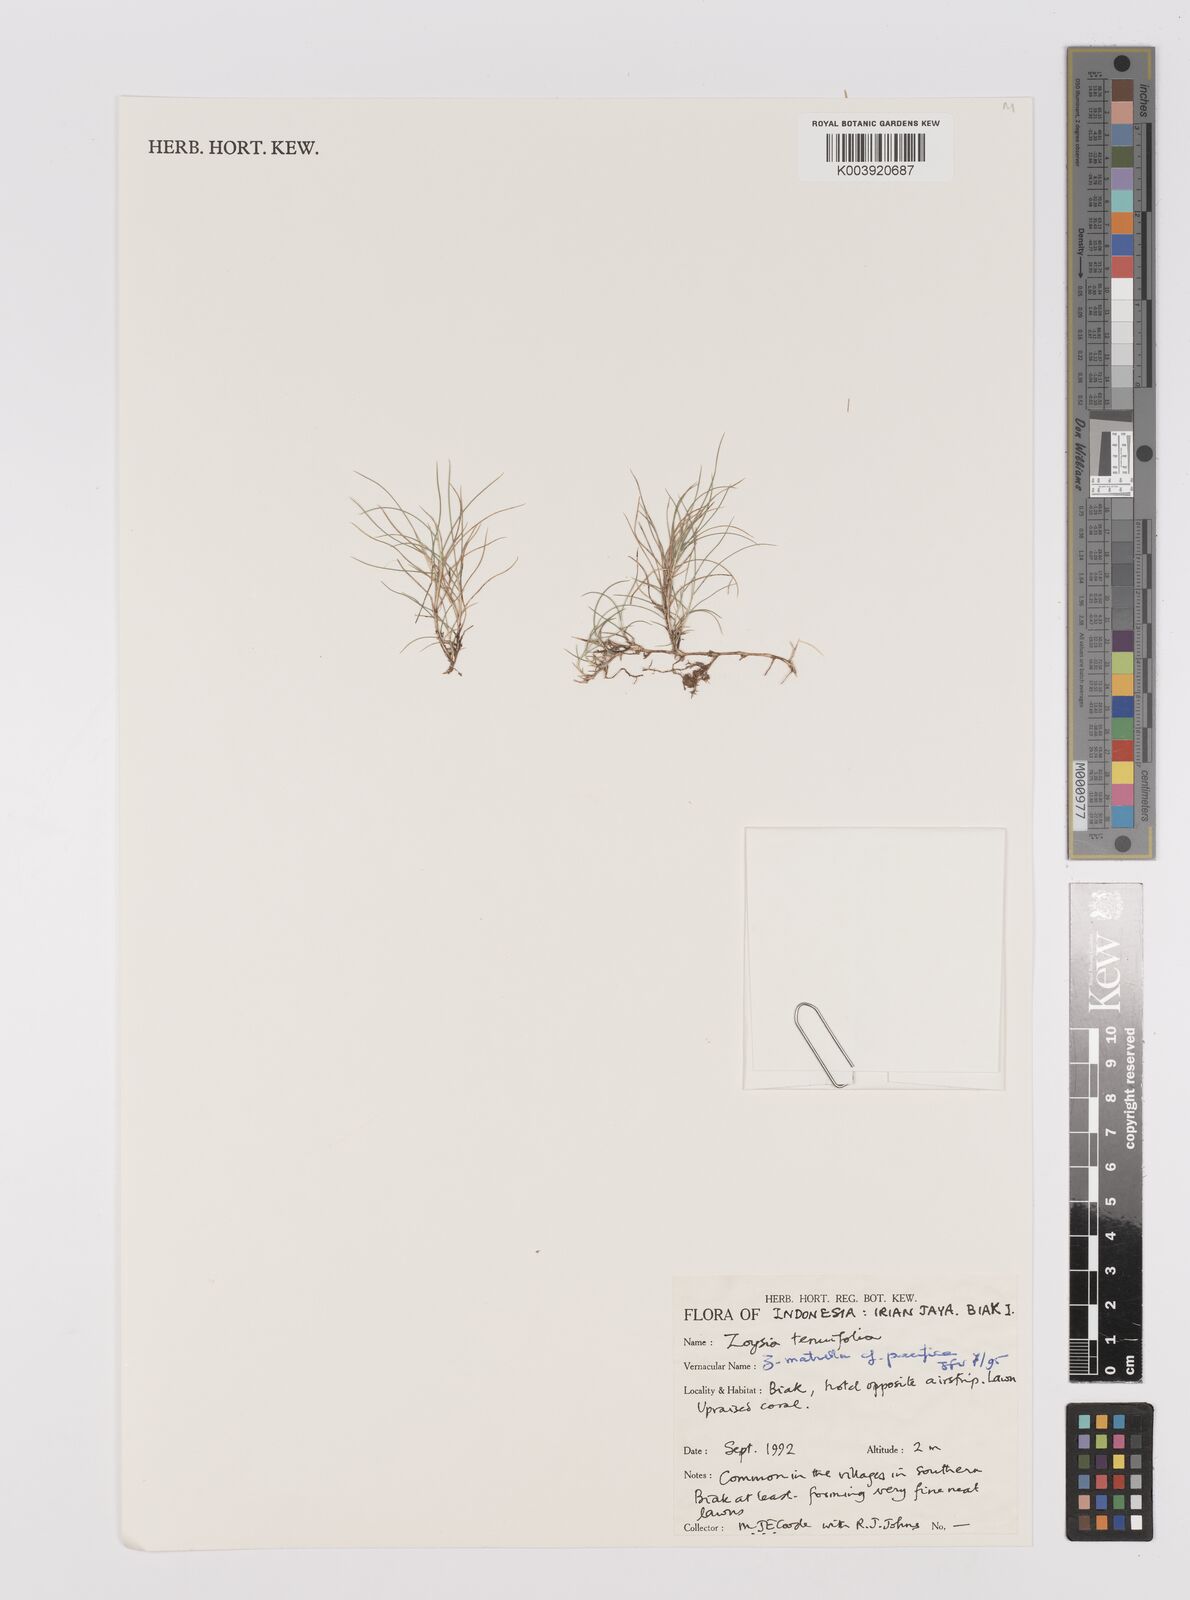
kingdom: Plantae
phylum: Tracheophyta
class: Liliopsida
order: Poales
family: Poaceae
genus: Zoysia
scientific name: Zoysia matrella
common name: Manila grass
